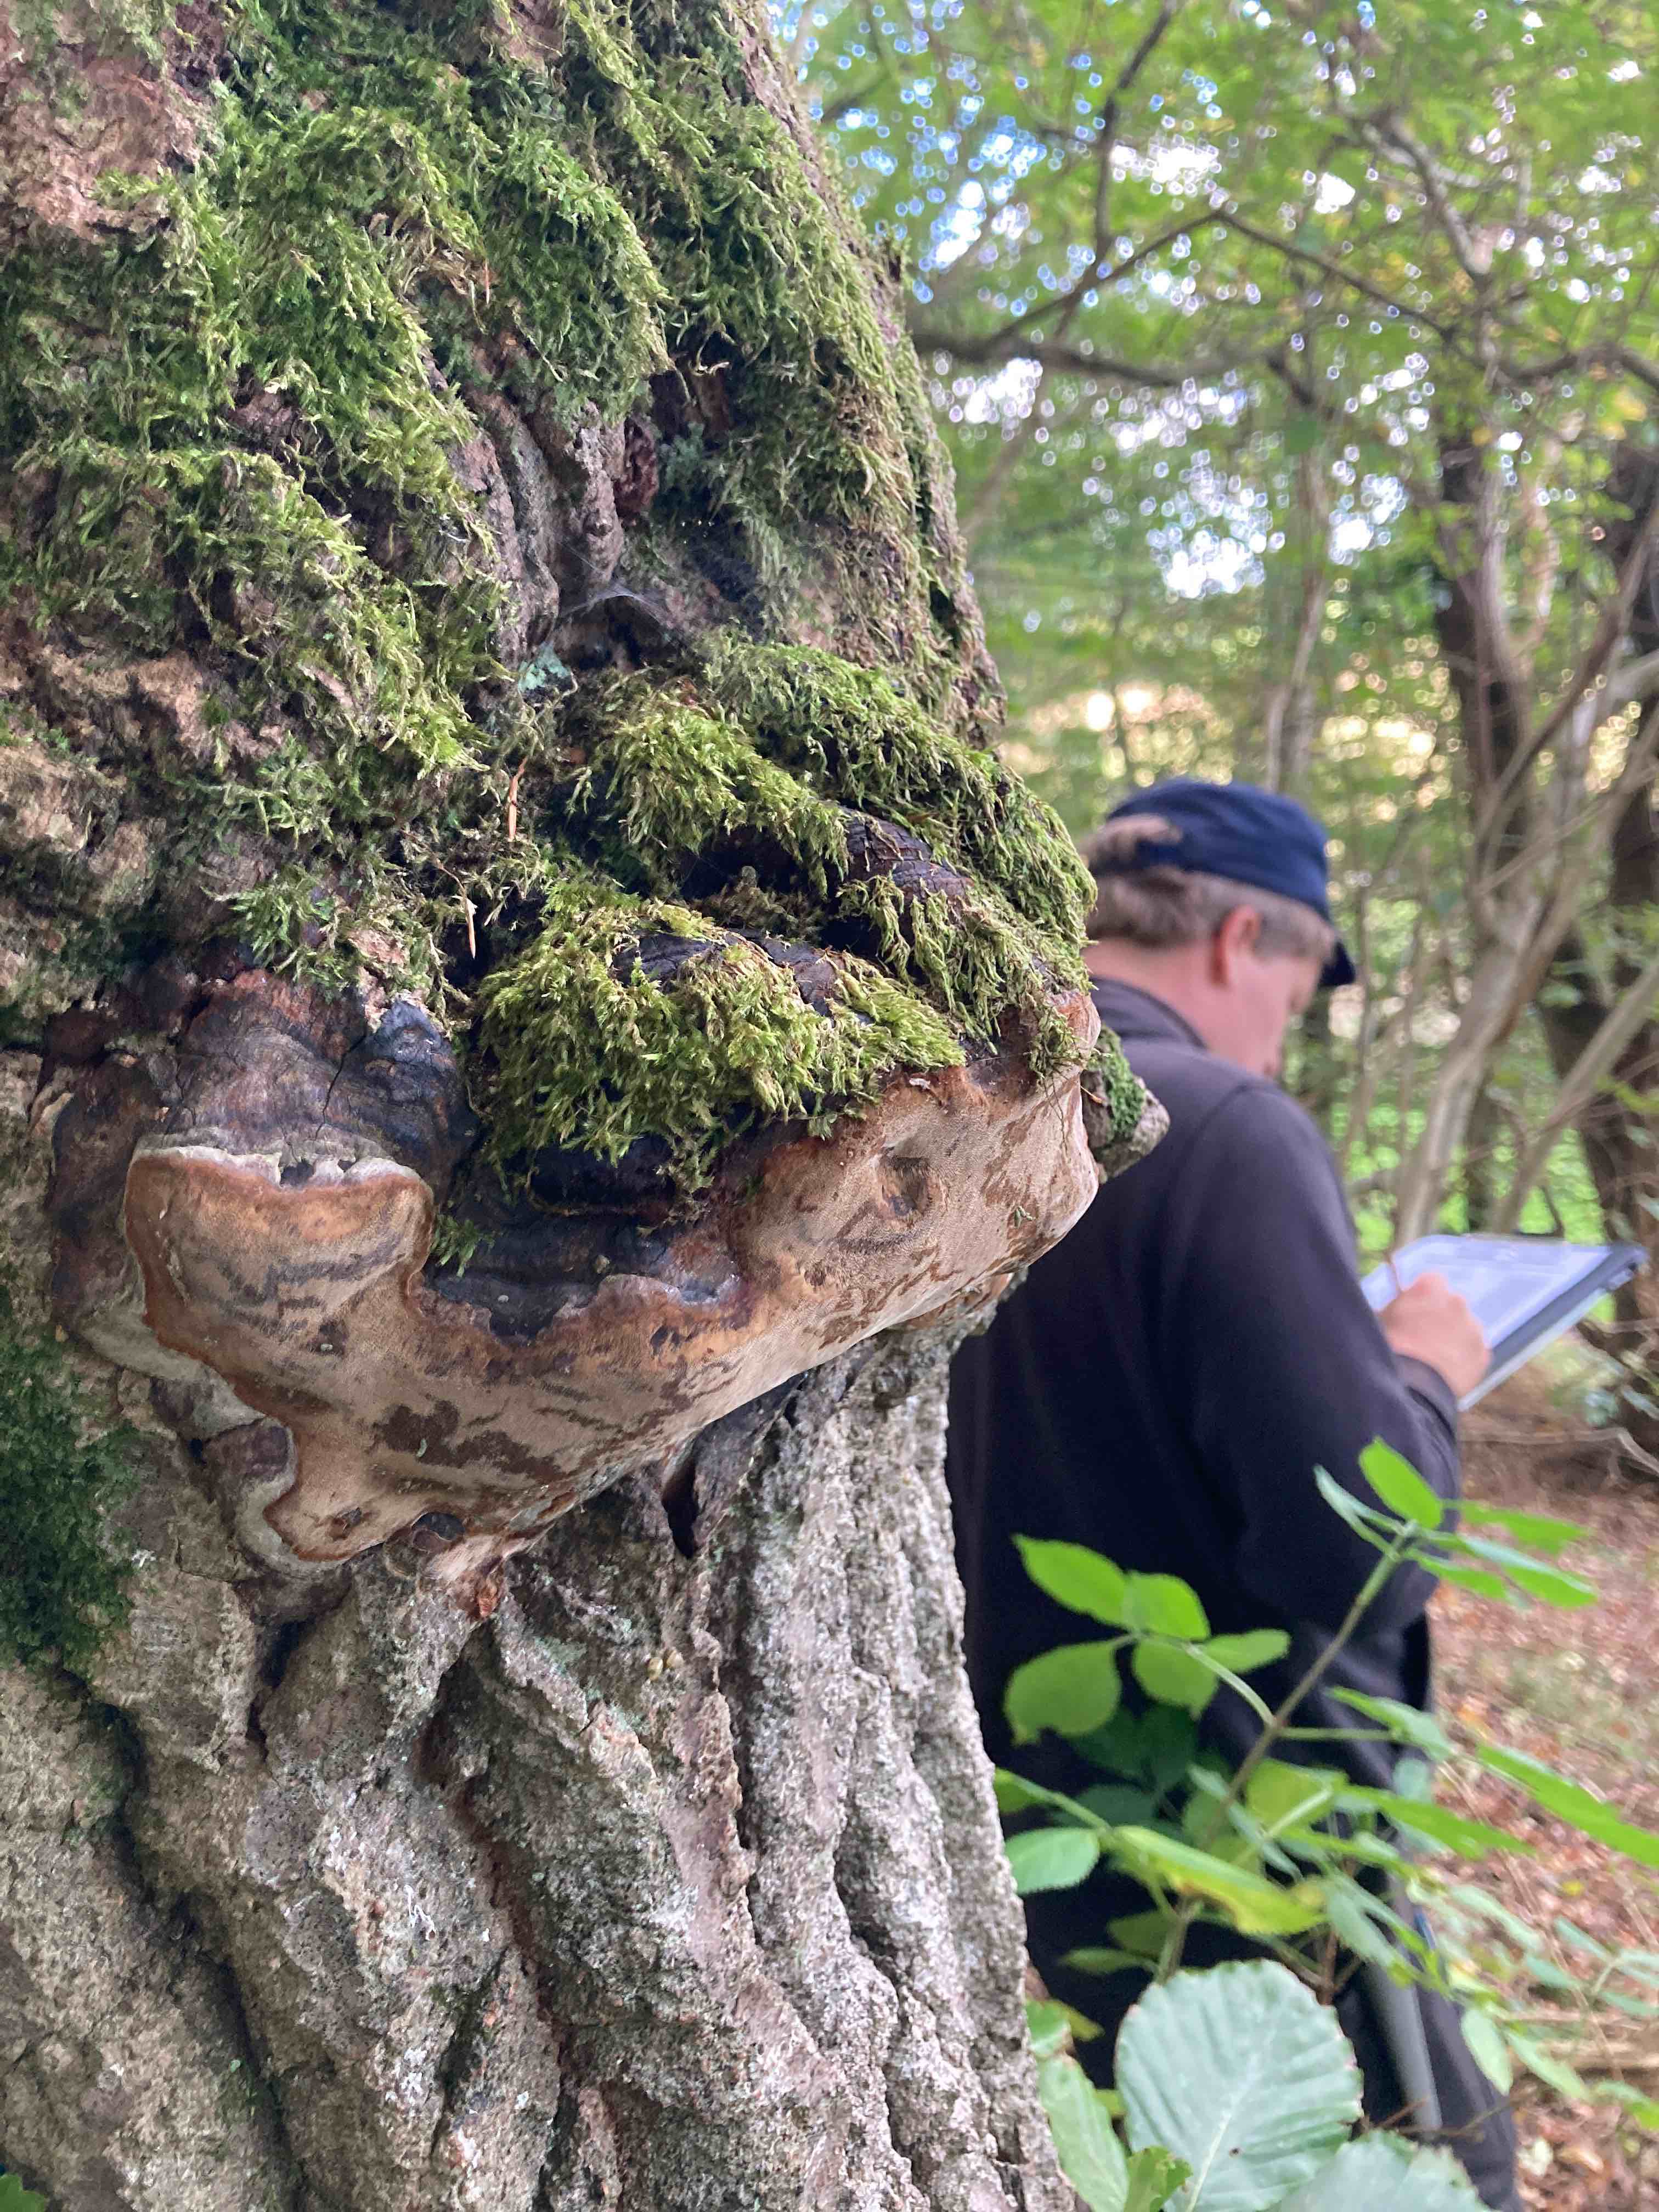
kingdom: Fungi
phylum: Basidiomycota
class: Agaricomycetes
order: Hymenochaetales
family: Hymenochaetaceae
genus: Phellinus
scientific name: Phellinus tremulae
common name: aspe-ildporesvamp
